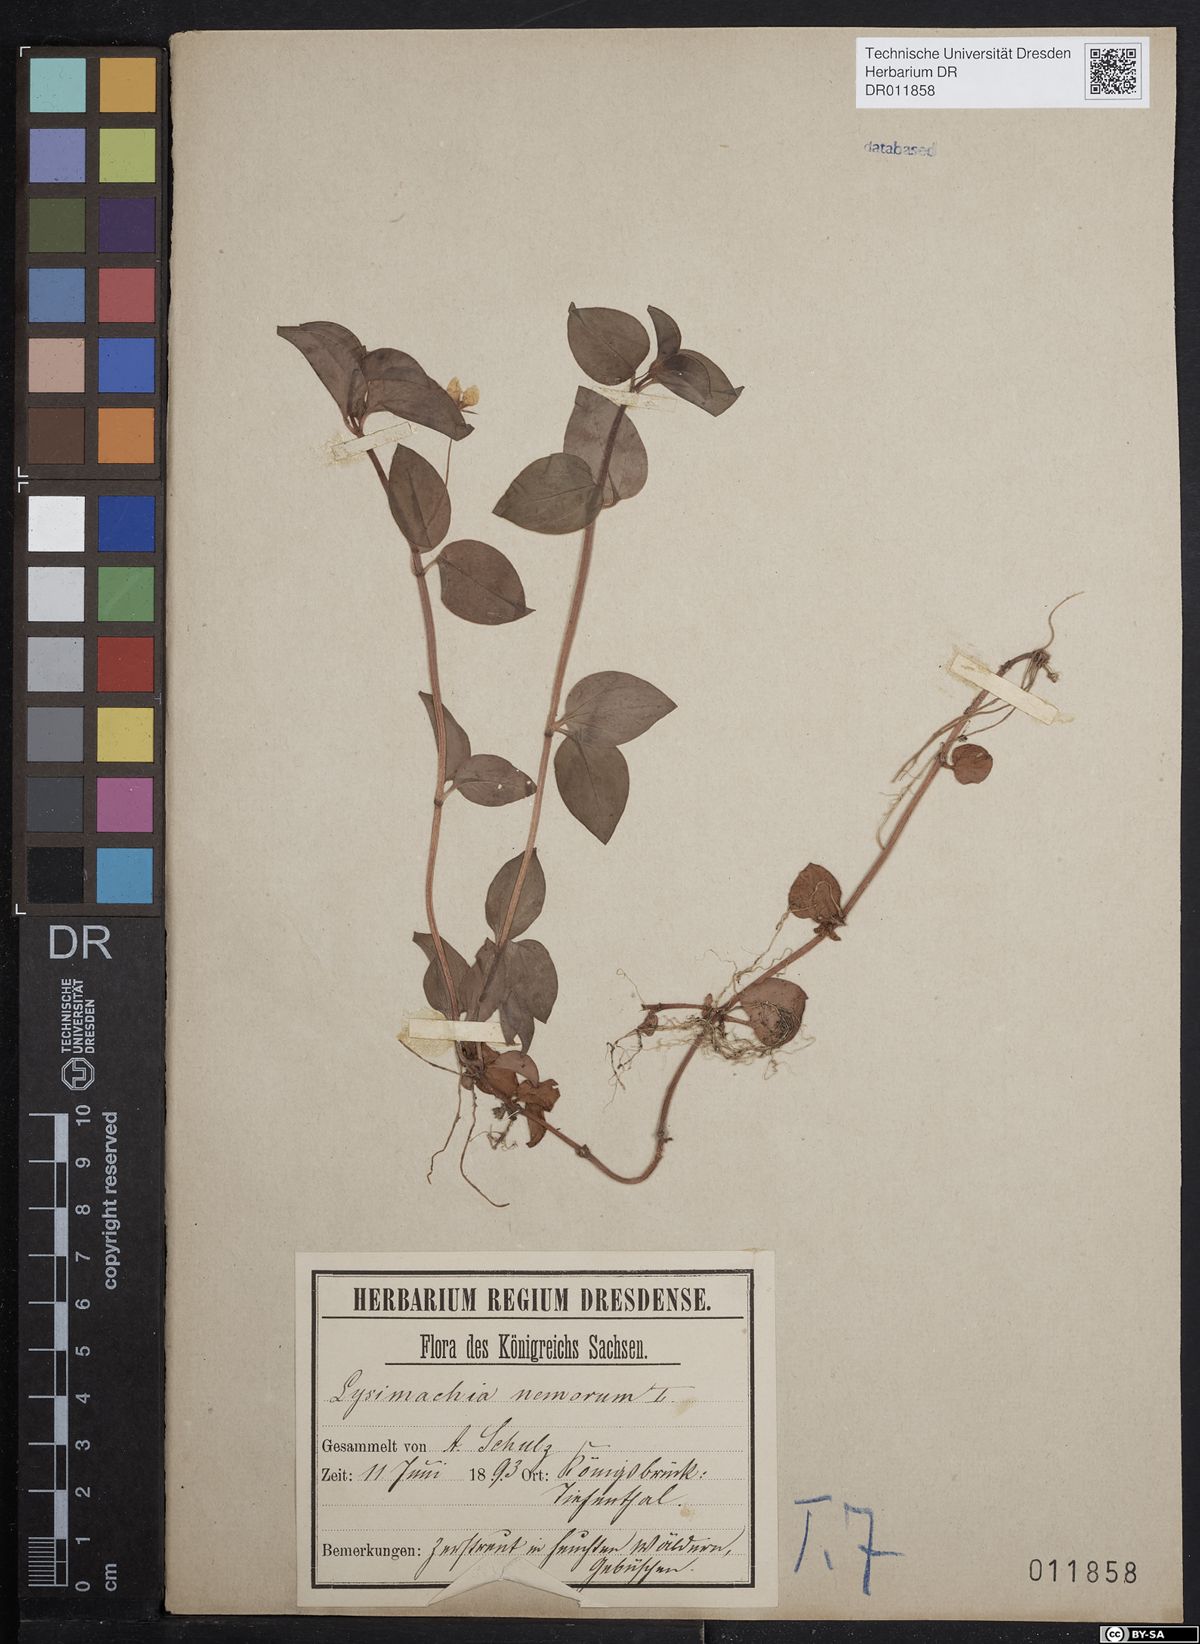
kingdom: Plantae
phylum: Tracheophyta
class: Magnoliopsida
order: Ericales
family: Primulaceae
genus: Lysimachia
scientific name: Lysimachia nemorum
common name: Yellow pimpernel
